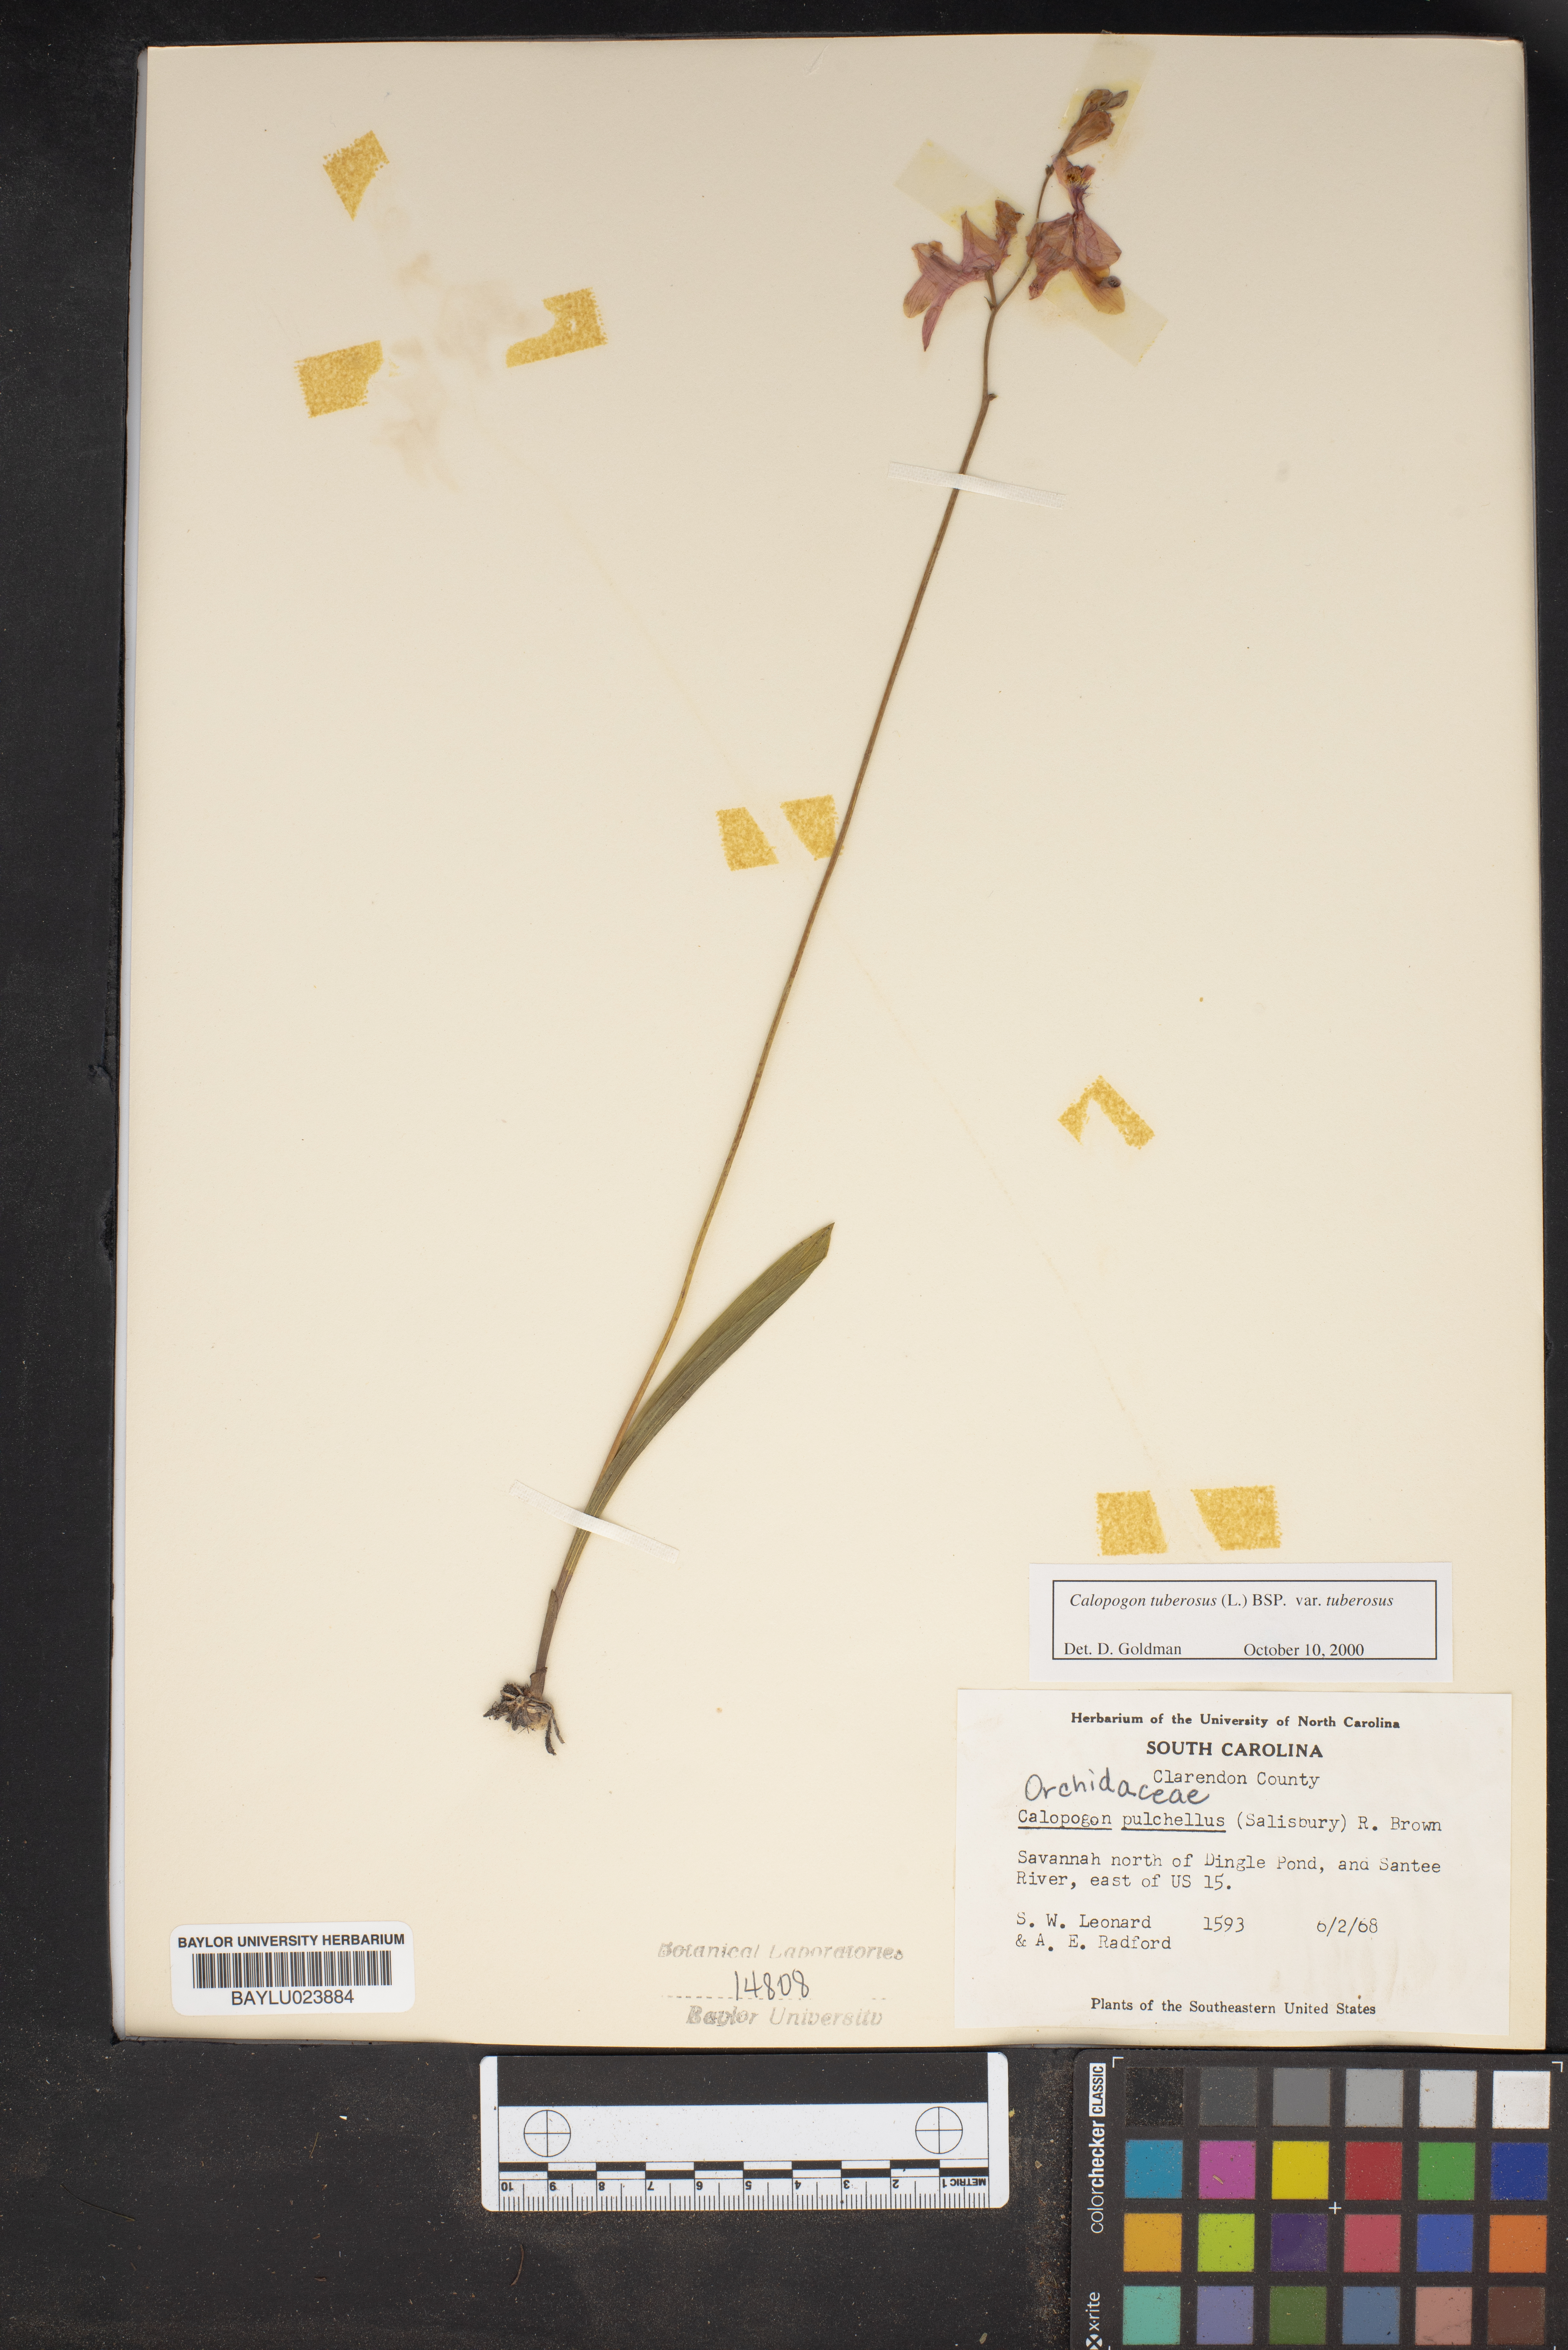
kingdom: Plantae
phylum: Tracheophyta
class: Liliopsida
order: Asparagales
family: Orchidaceae
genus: Calopogon
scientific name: Calopogon tuberosus
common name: Grass-pink
